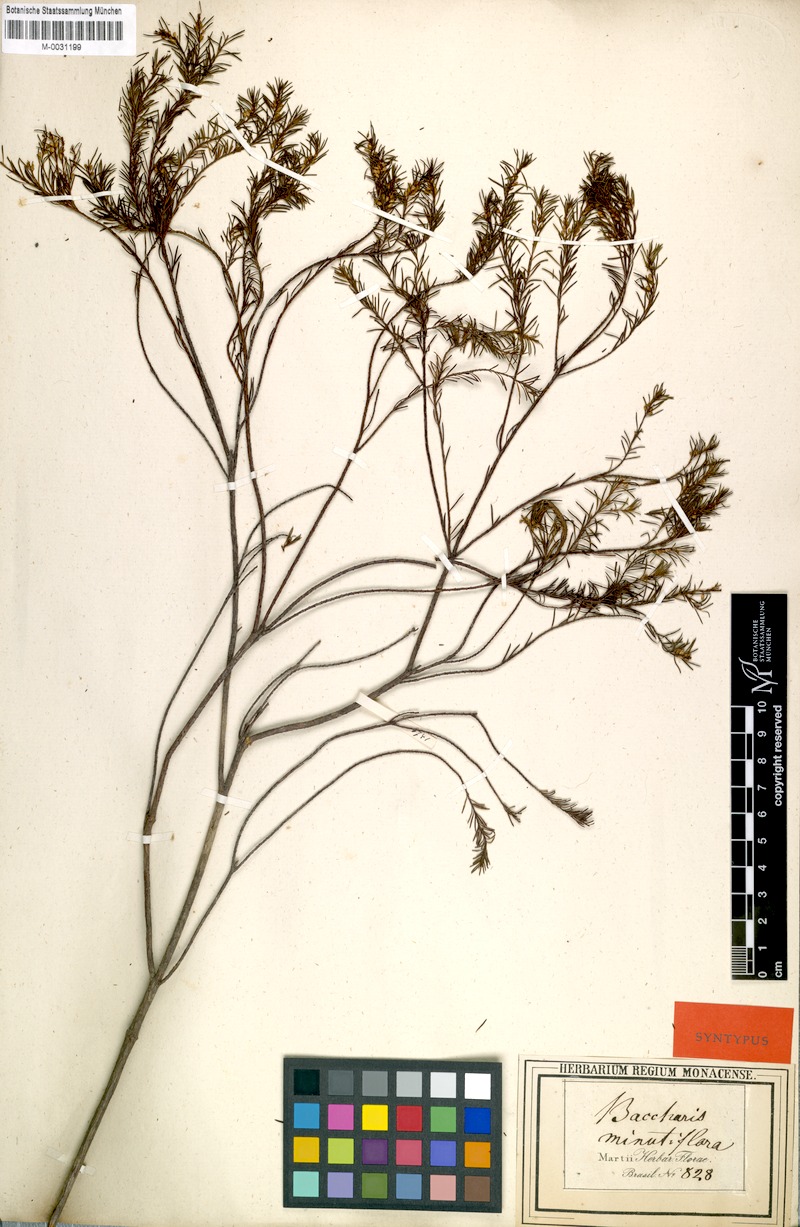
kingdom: Plantae
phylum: Tracheophyta
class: Magnoliopsida
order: Asterales
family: Asteraceae
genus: Baccharis
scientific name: Baccharis minutiflora
